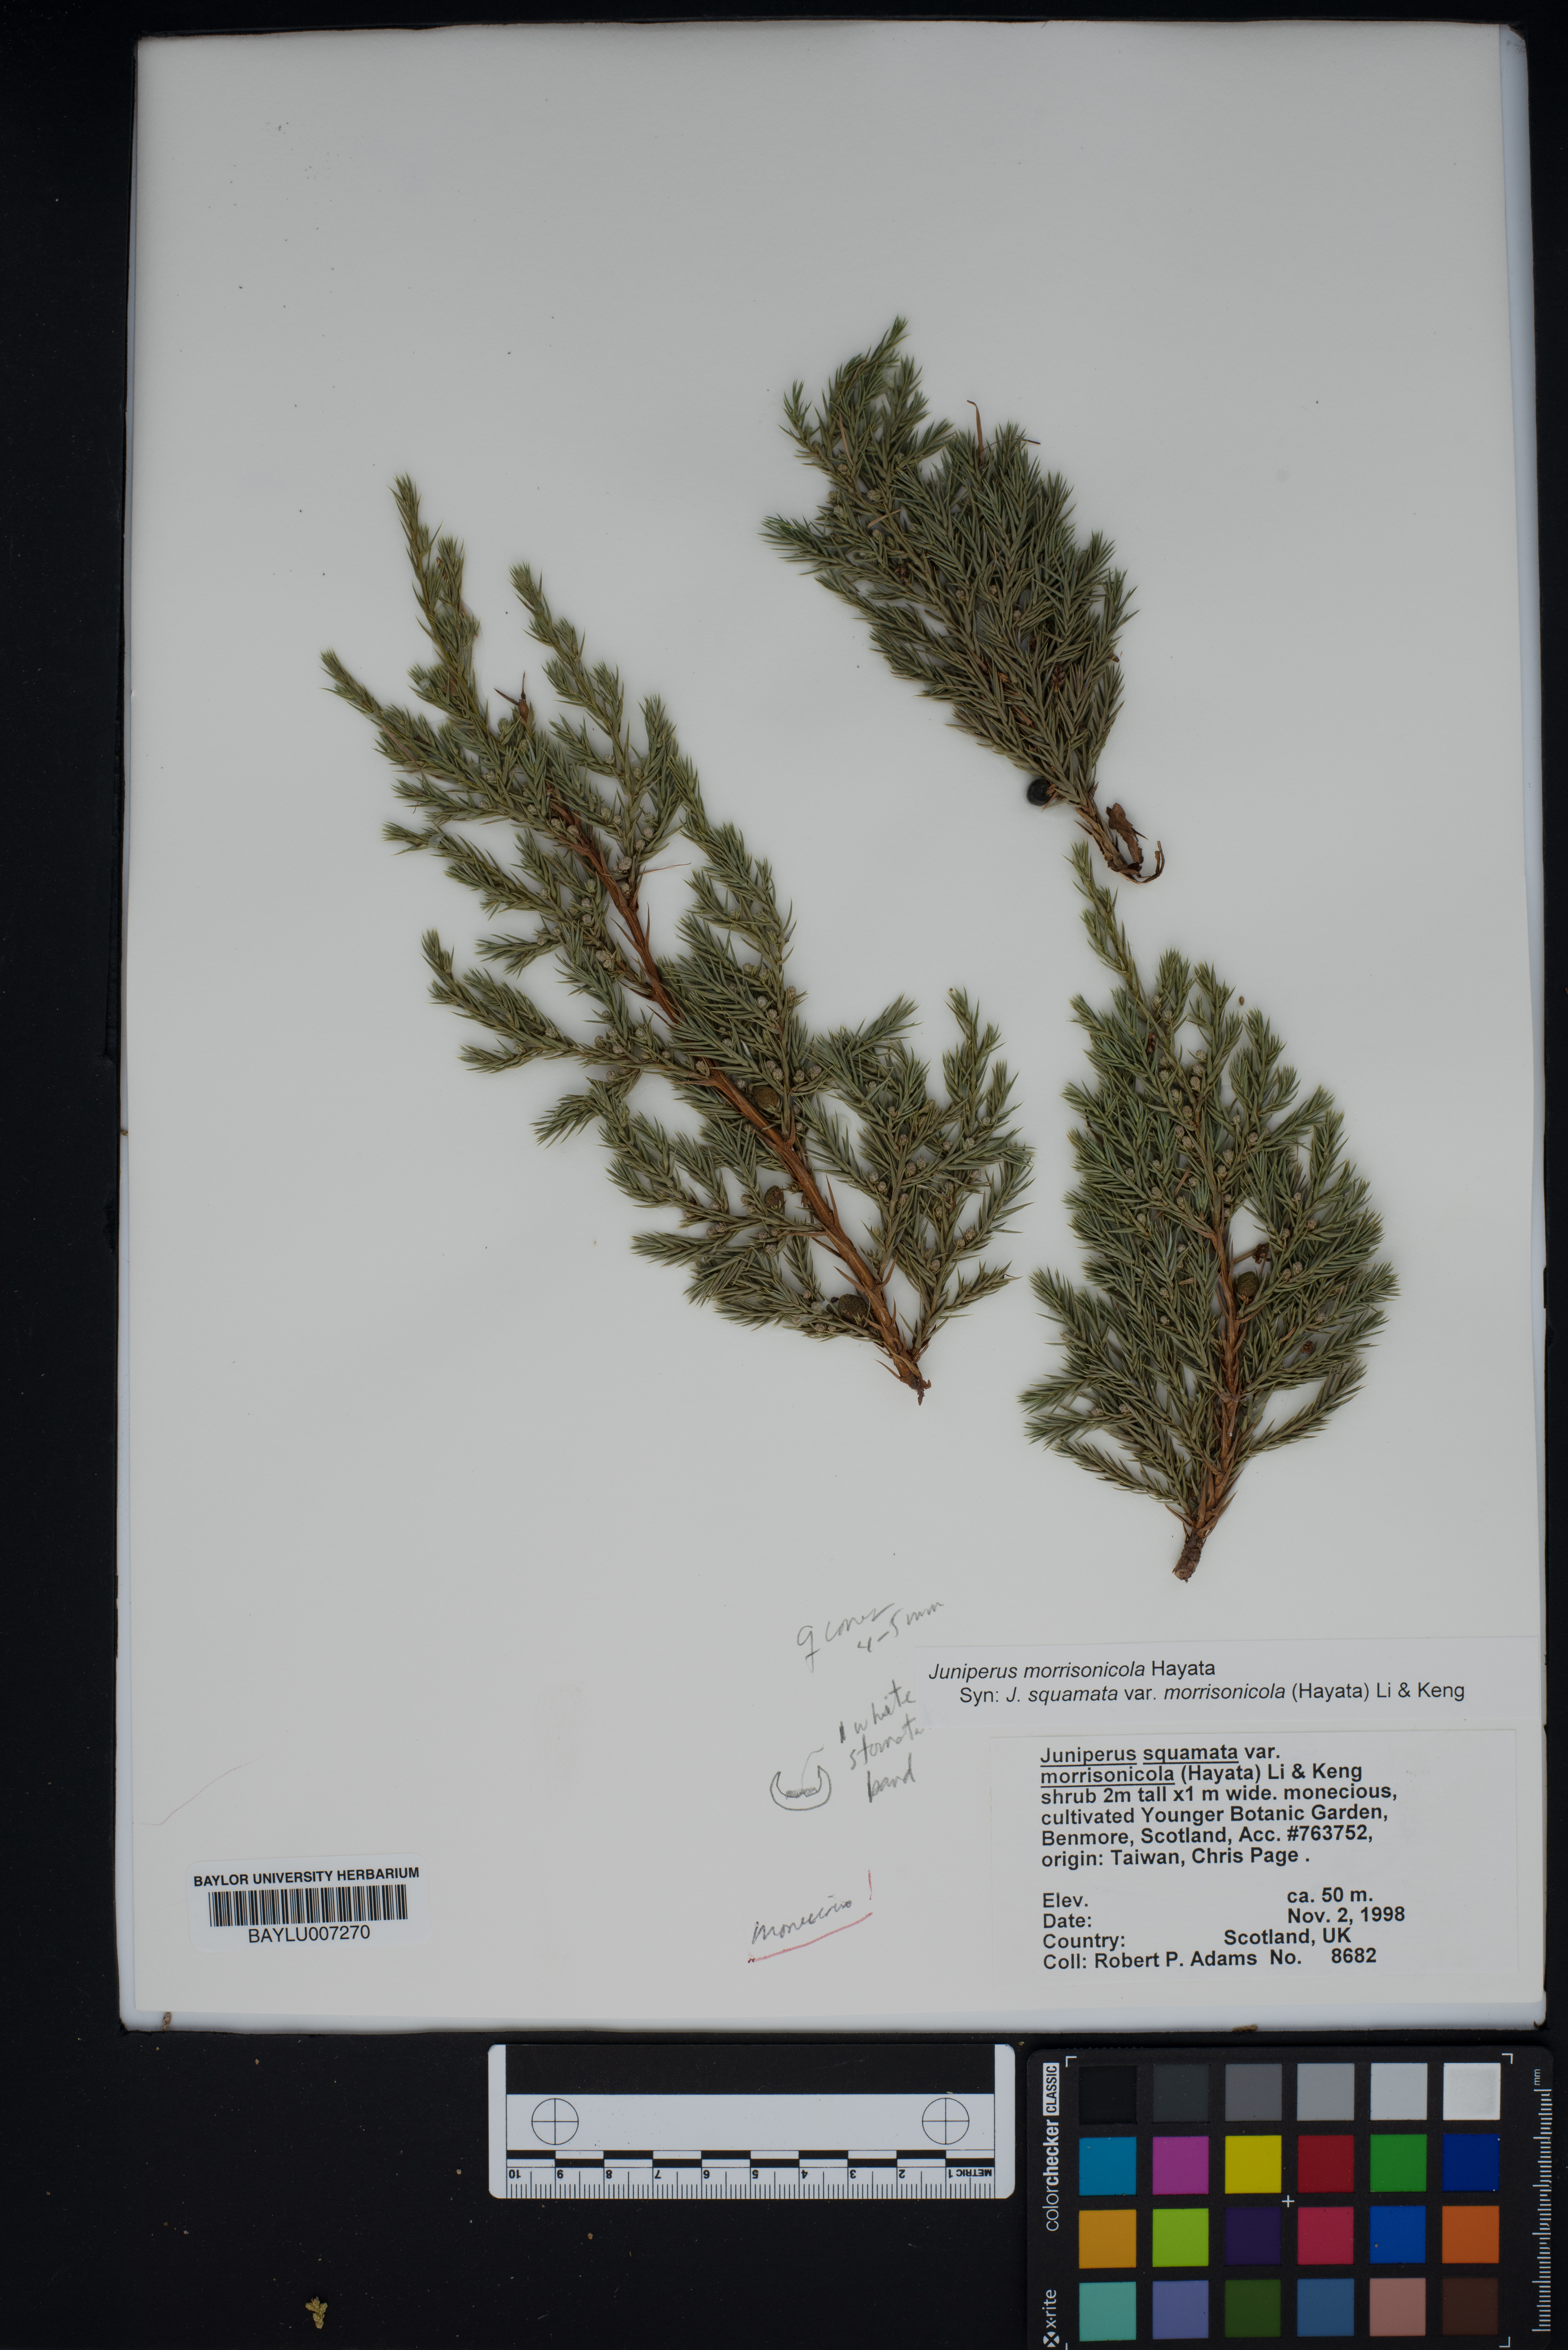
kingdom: Plantae
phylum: Tracheophyta
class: Pinopsida
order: Pinales
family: Cupressaceae
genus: Juniperus
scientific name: Juniperus squamata
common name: Flaky juniper
